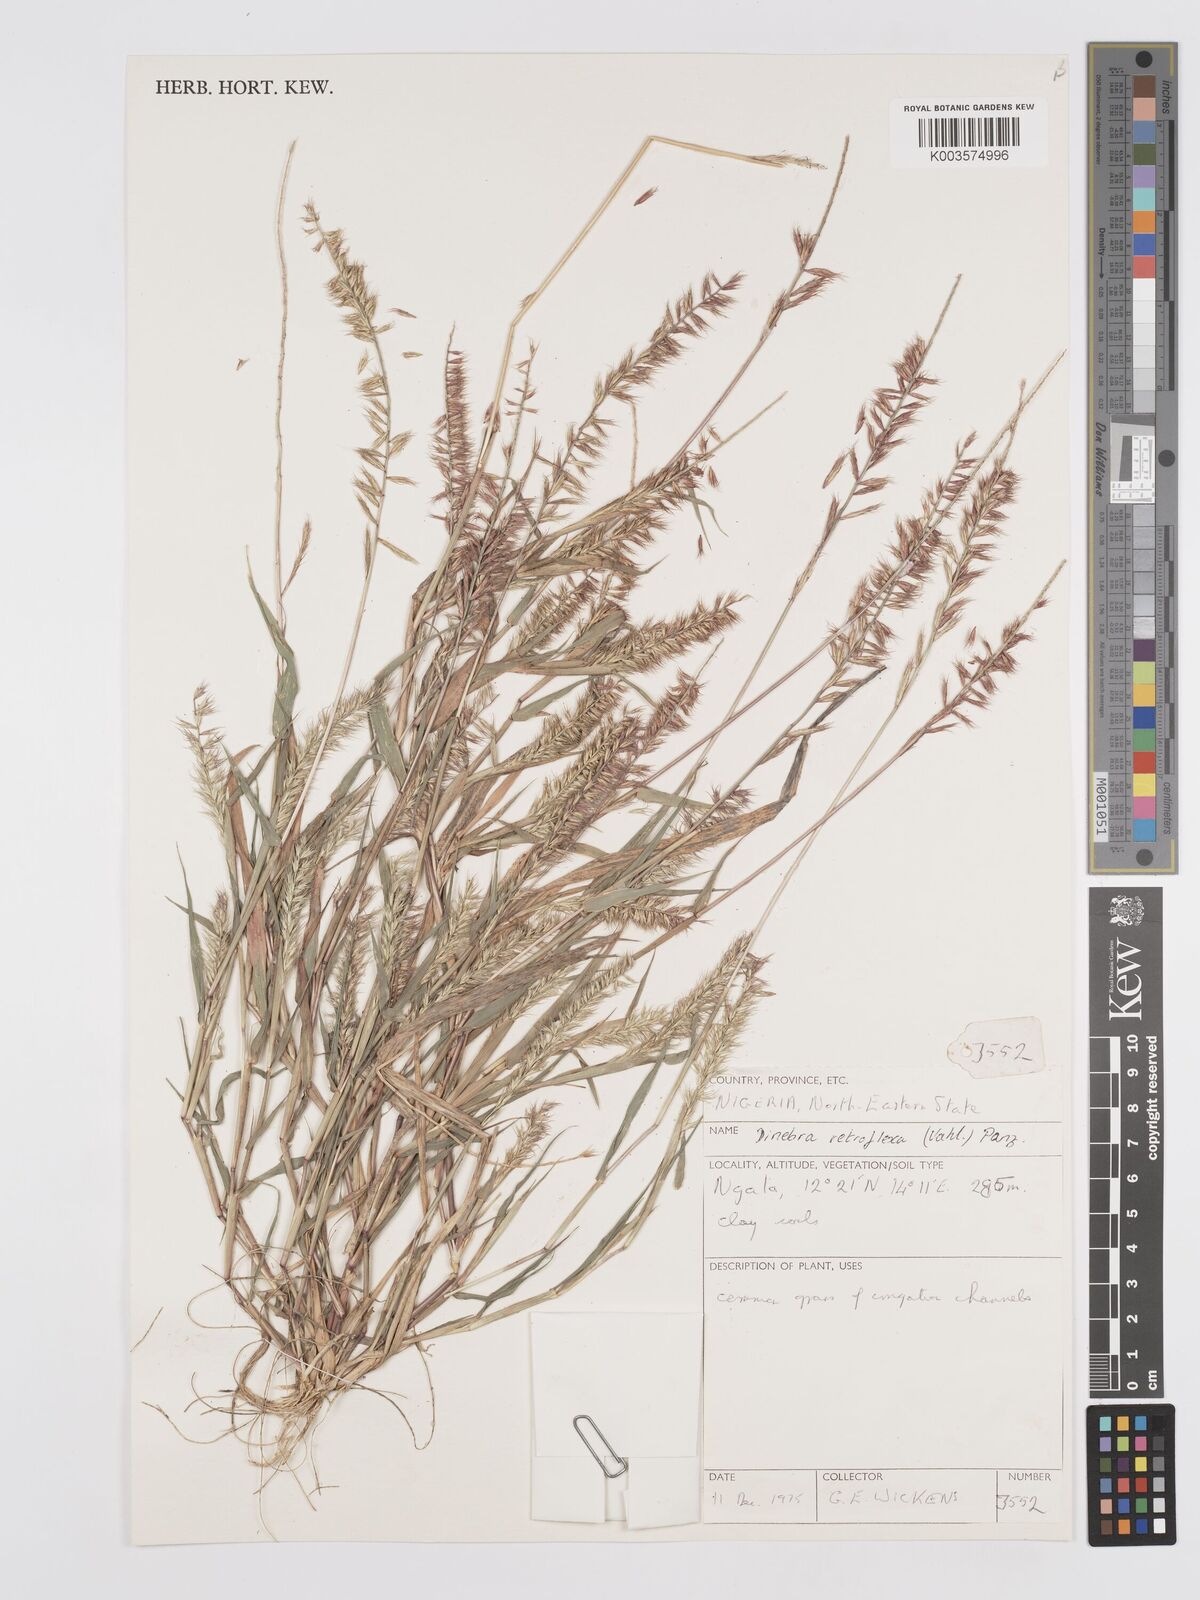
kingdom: Plantae
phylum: Tracheophyta
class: Liliopsida
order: Poales
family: Poaceae
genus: Dinebra
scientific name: Dinebra retroflexa
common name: Viper grass
